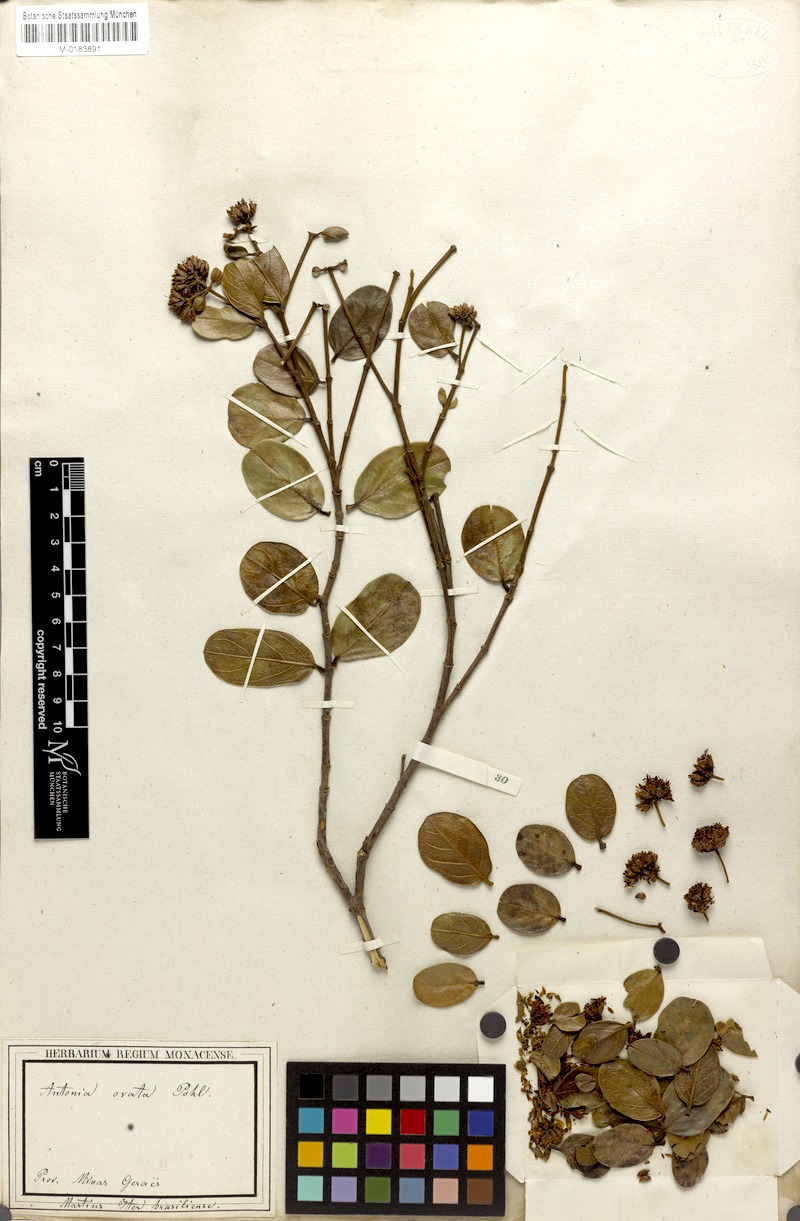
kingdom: Plantae
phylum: Tracheophyta
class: Magnoliopsida
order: Gentianales
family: Loganiaceae
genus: Antonia
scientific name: Antonia ovata
